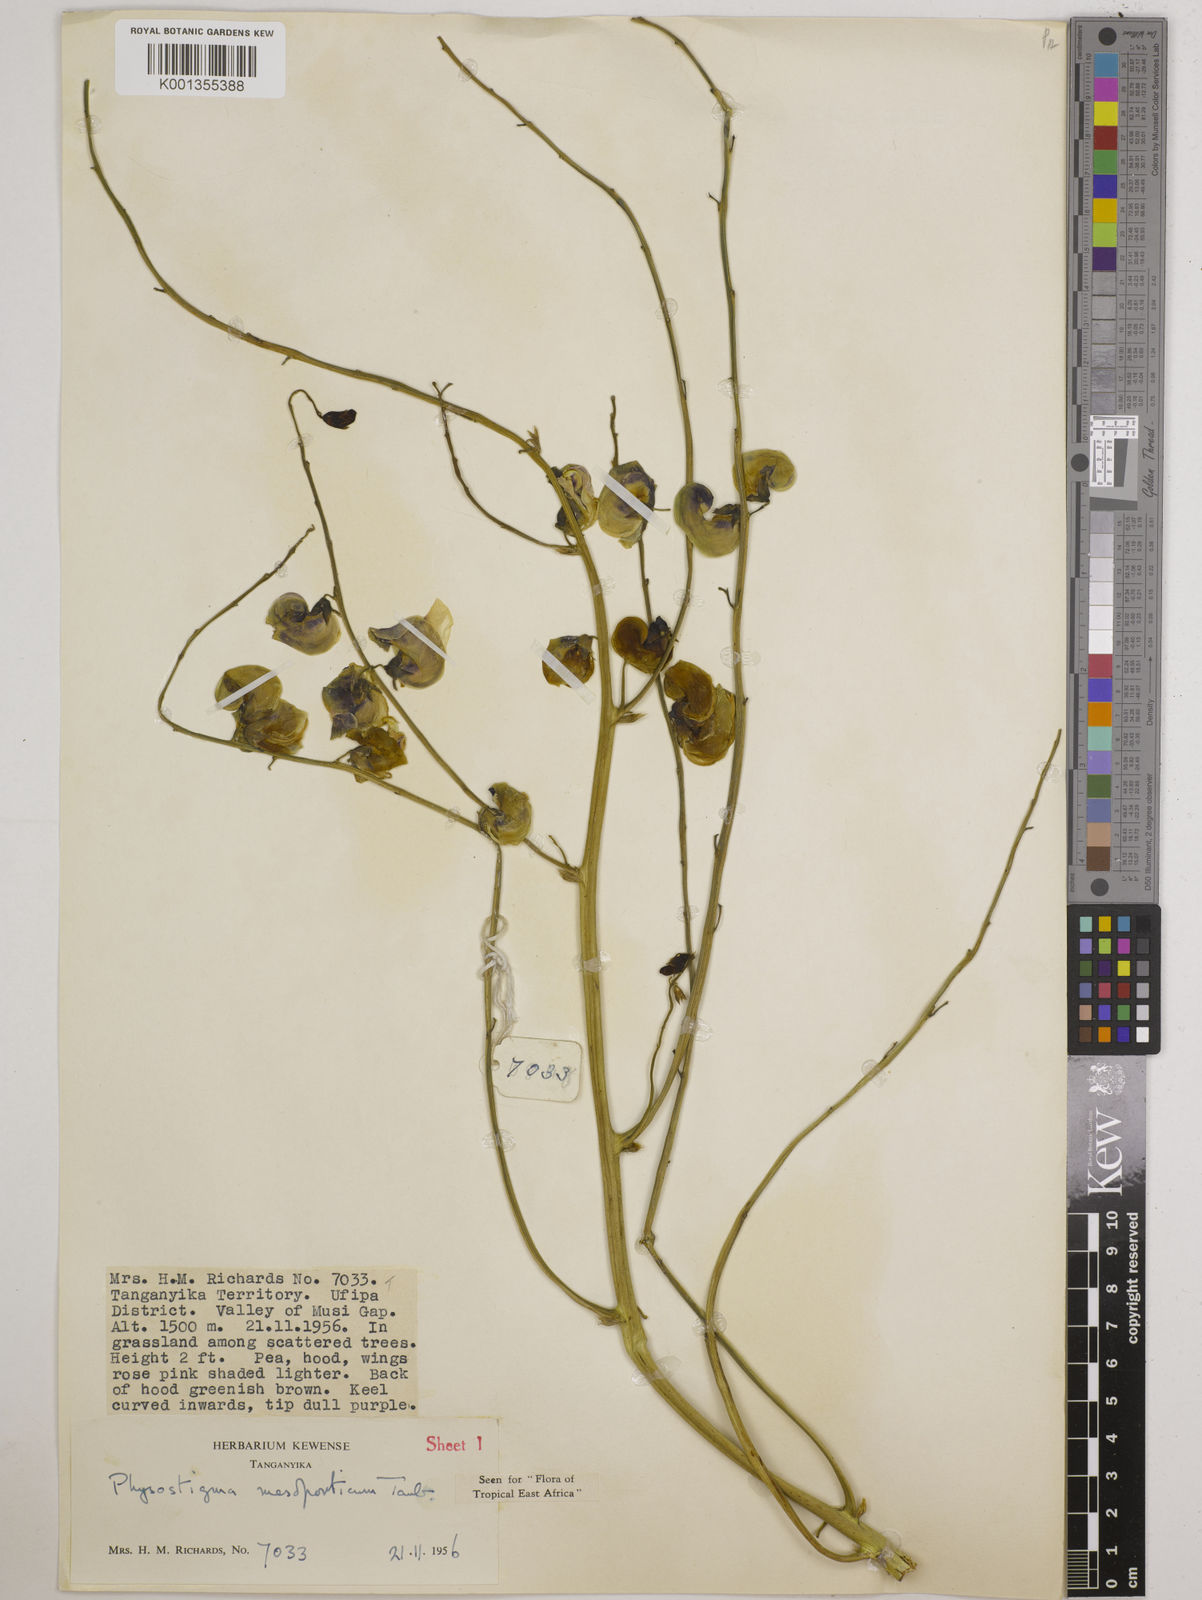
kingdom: Plantae
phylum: Tracheophyta
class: Magnoliopsida
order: Fabales
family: Fabaceae
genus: Physostigma
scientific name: Physostigma mesoponticum
